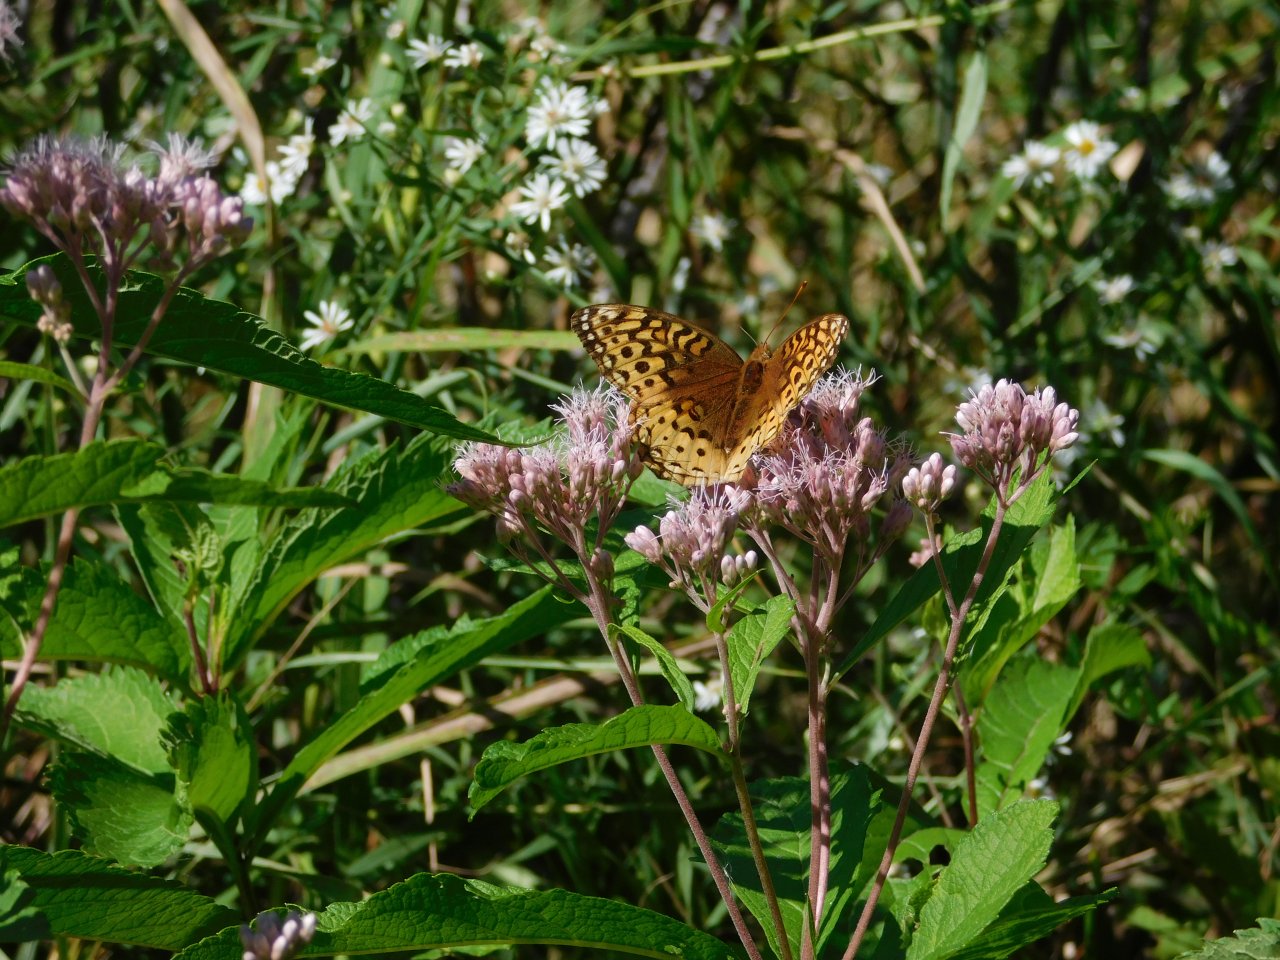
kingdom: Animalia
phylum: Arthropoda
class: Insecta
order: Lepidoptera
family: Nymphalidae
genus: Speyeria
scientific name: Speyeria cybele
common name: Great Spangled Fritillary
